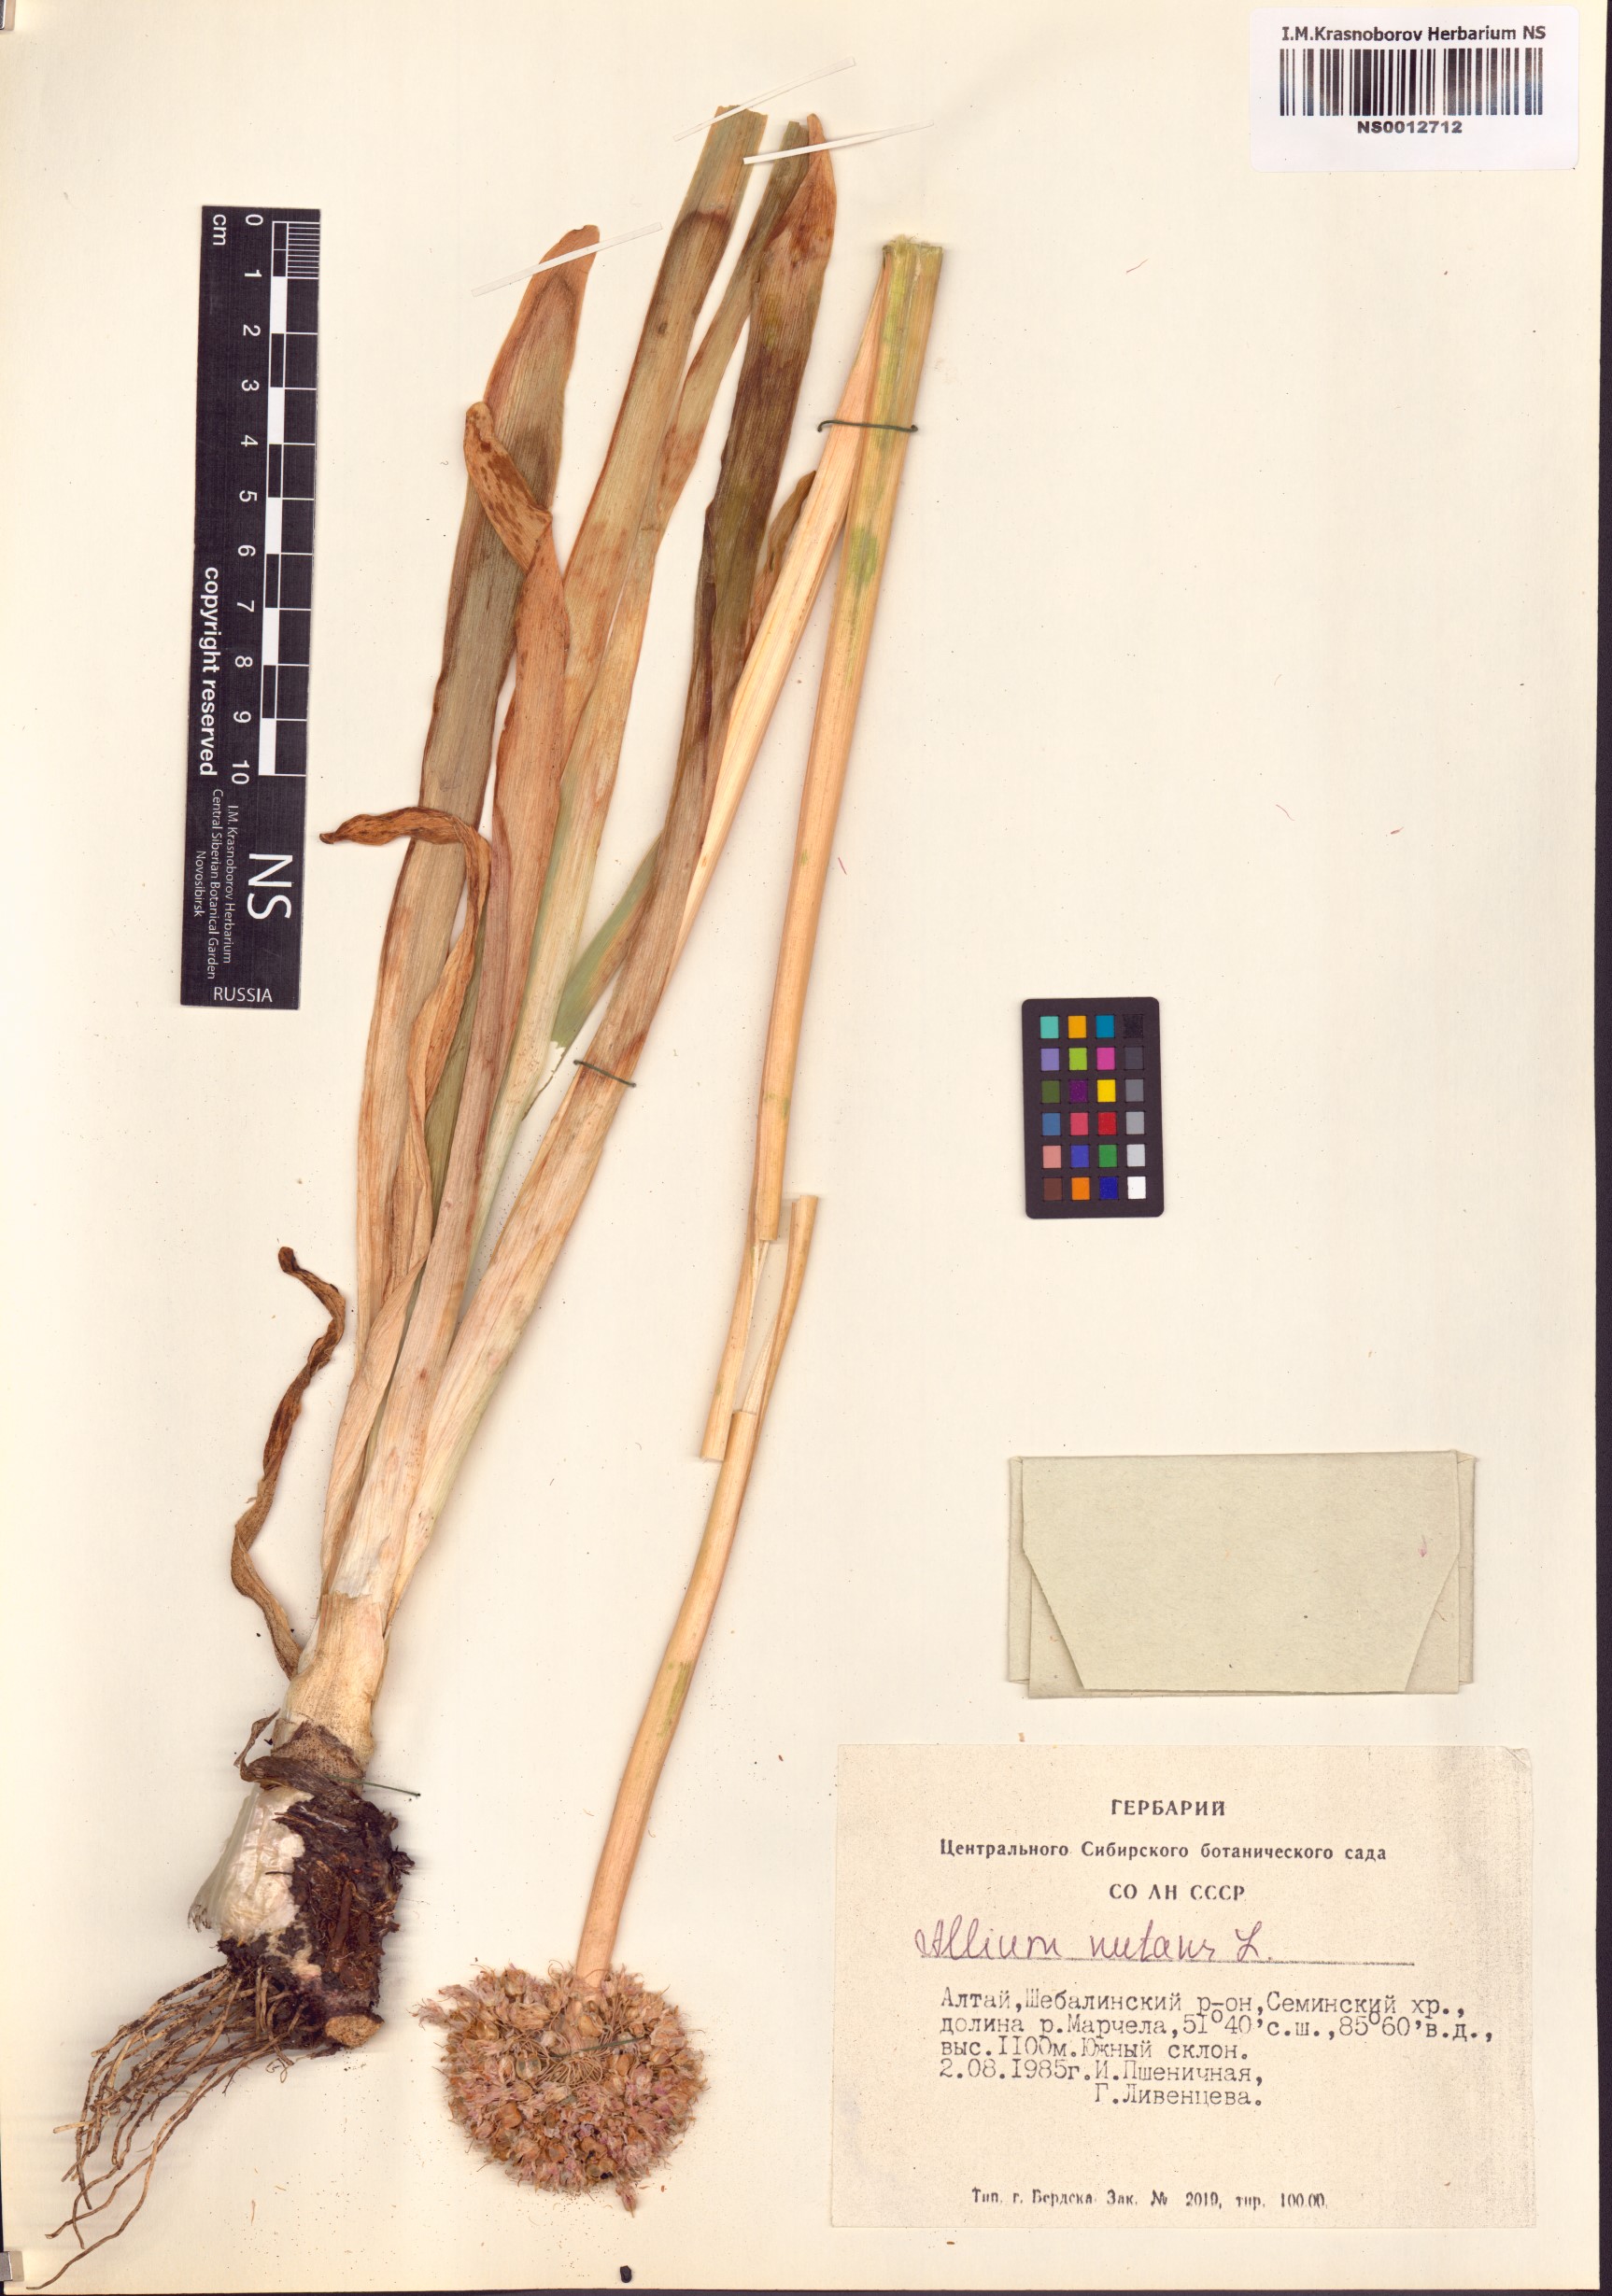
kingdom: Plantae
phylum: Tracheophyta
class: Liliopsida
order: Asparagales
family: Amaryllidaceae
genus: Allium
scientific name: Allium nutans
